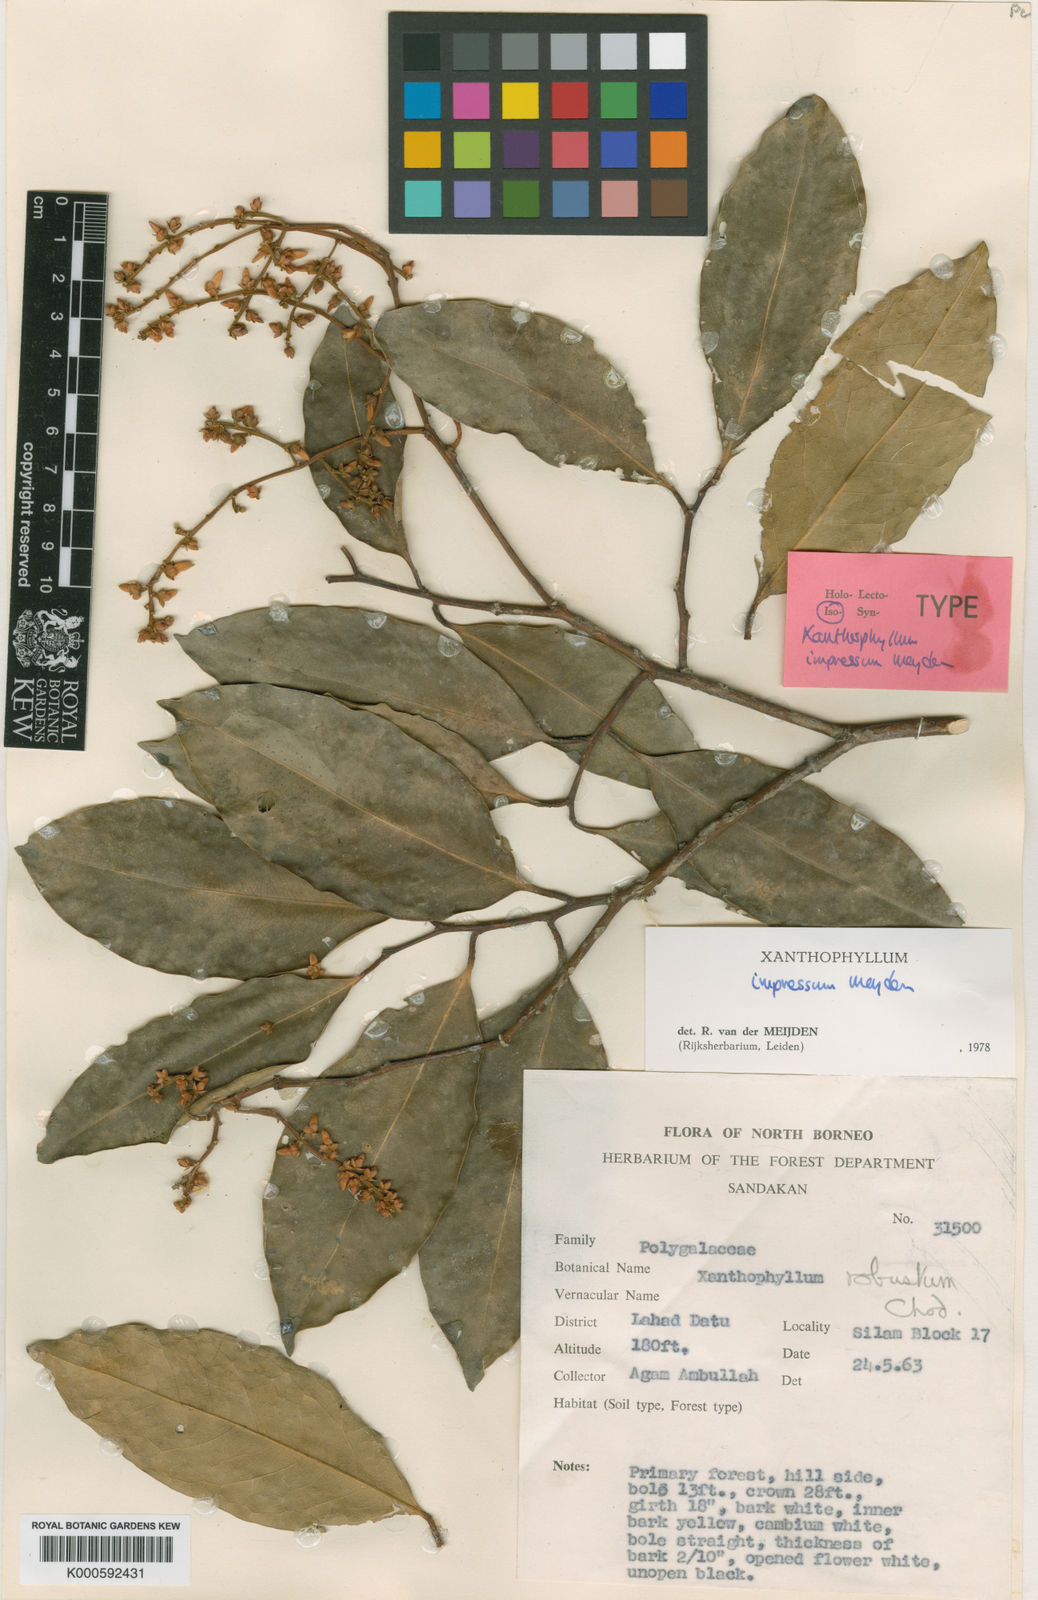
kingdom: Plantae
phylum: Tracheophyta
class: Magnoliopsida
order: Fabales
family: Polygalaceae
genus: Xanthophyllum
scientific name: Xanthophyllum impressum
